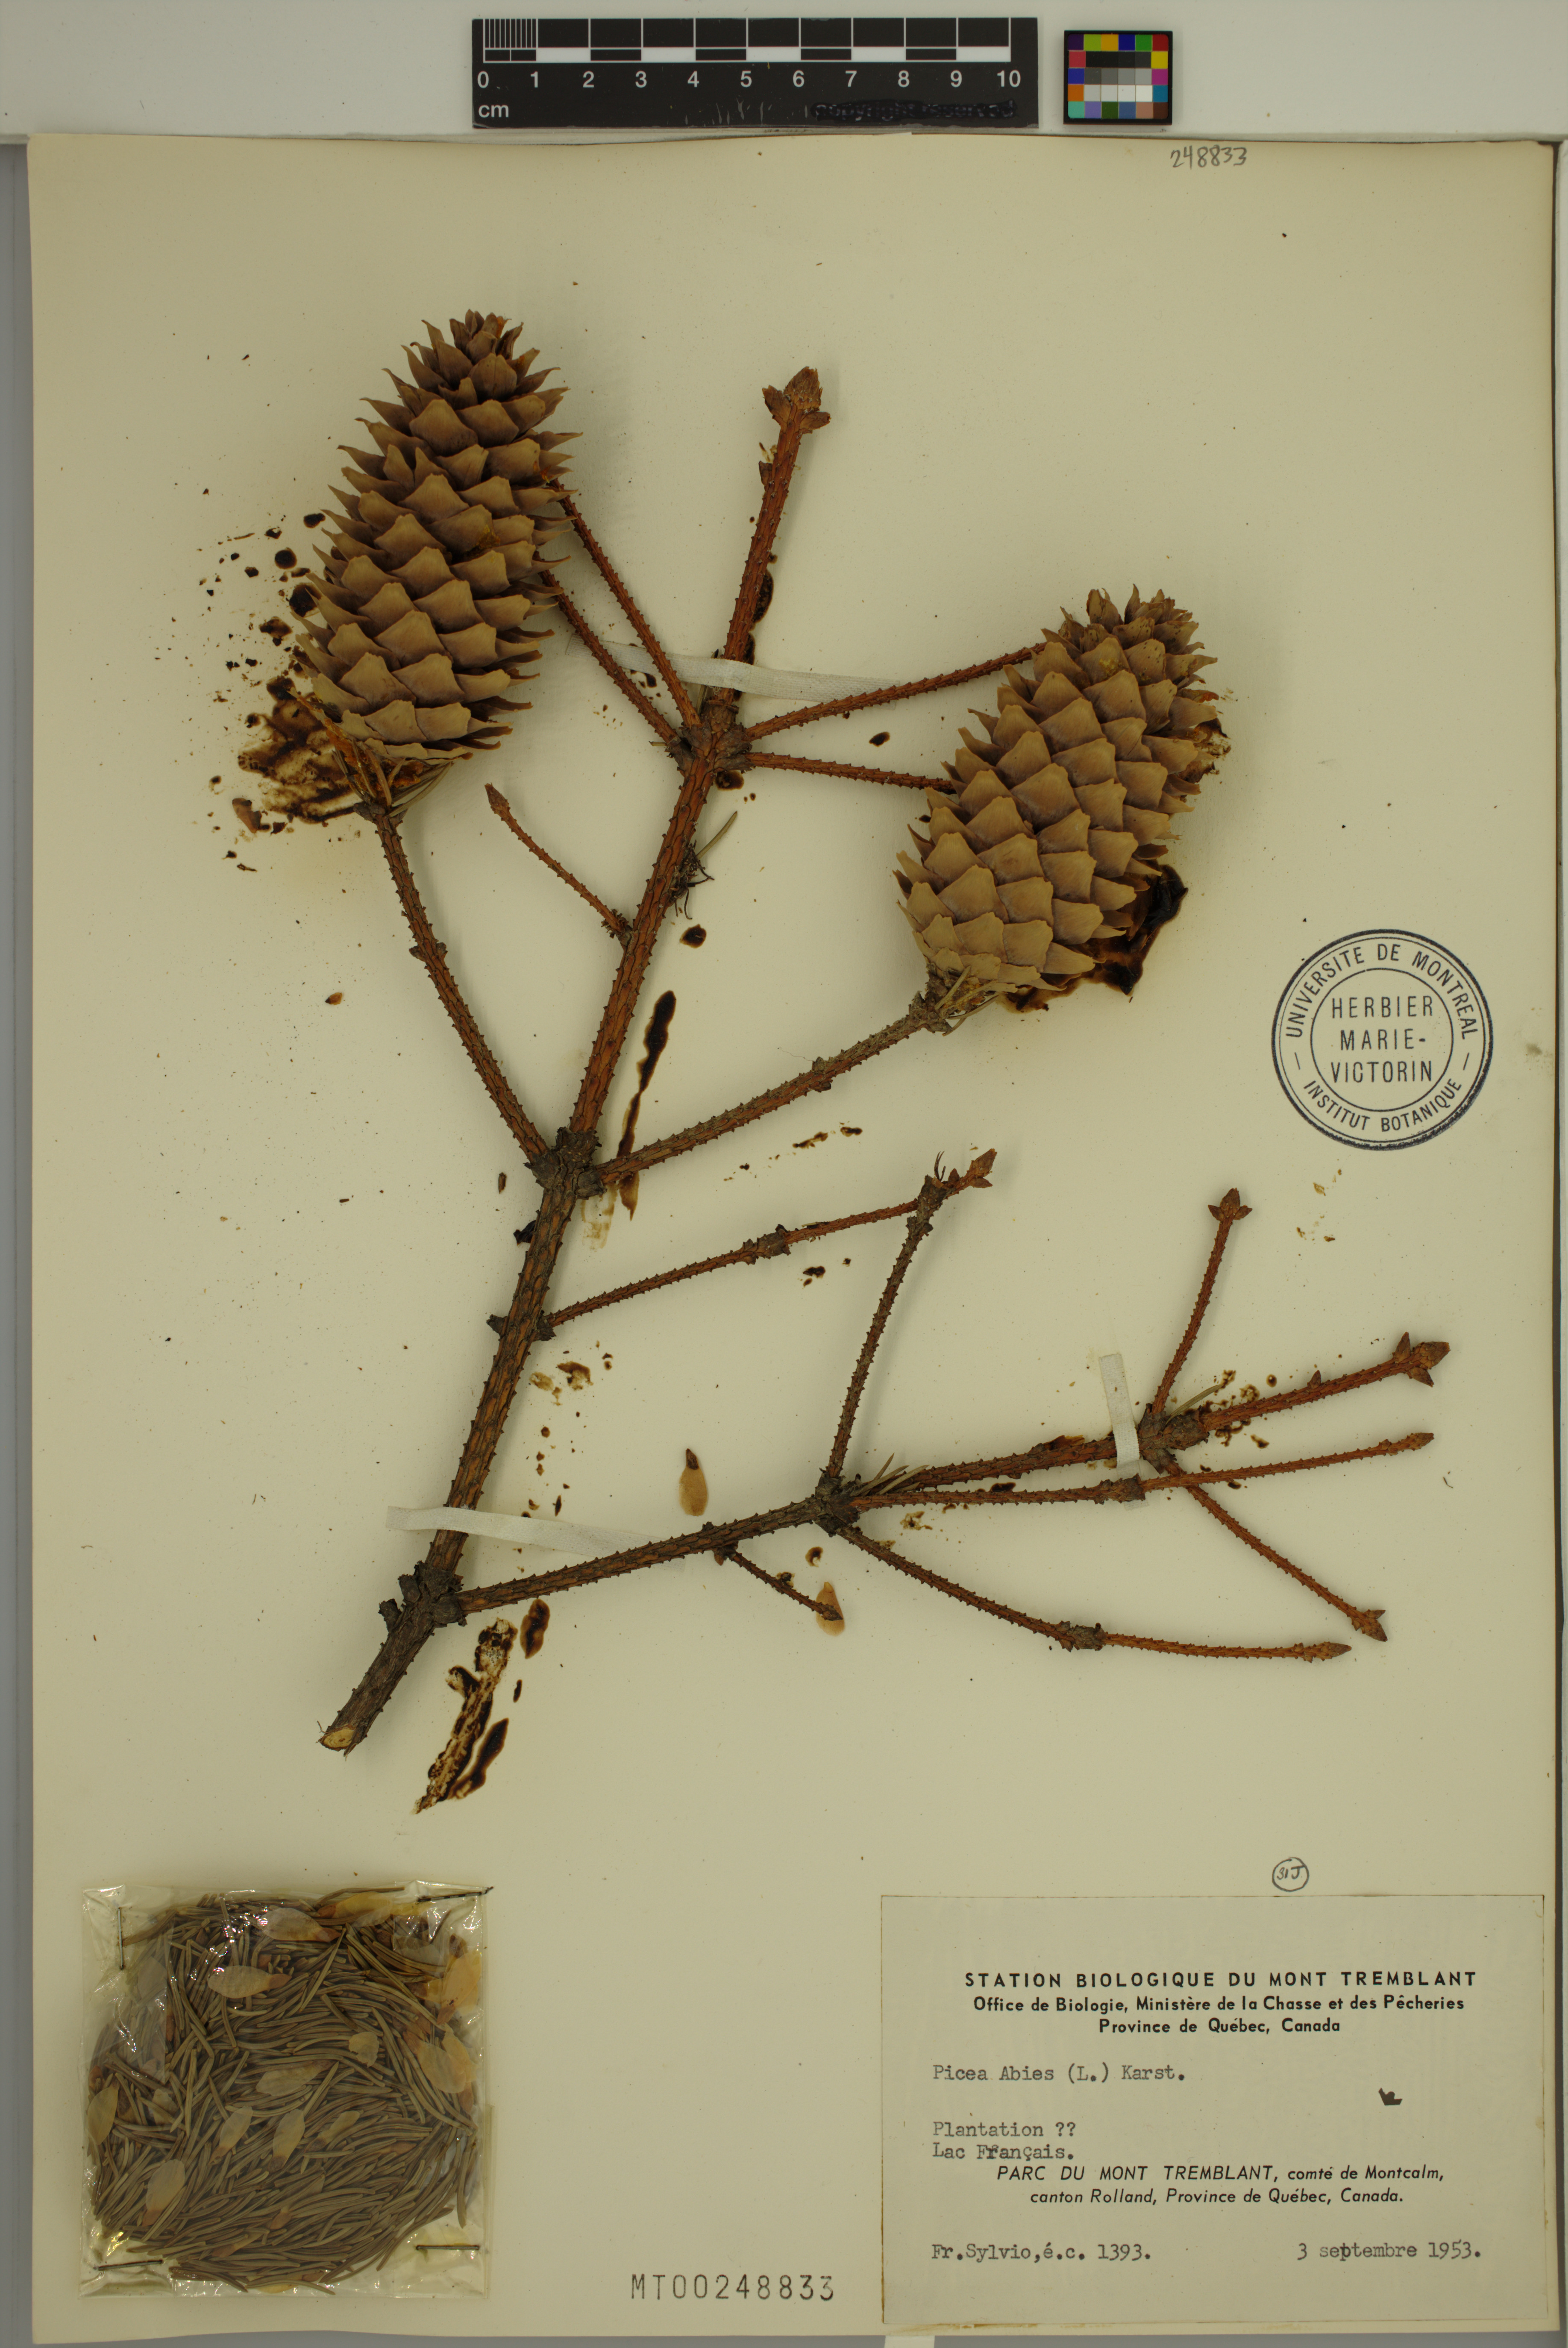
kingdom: Plantae
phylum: Tracheophyta
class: Pinopsida
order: Pinales
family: Pinaceae
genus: Picea
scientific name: Picea abies
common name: Norway spruce
